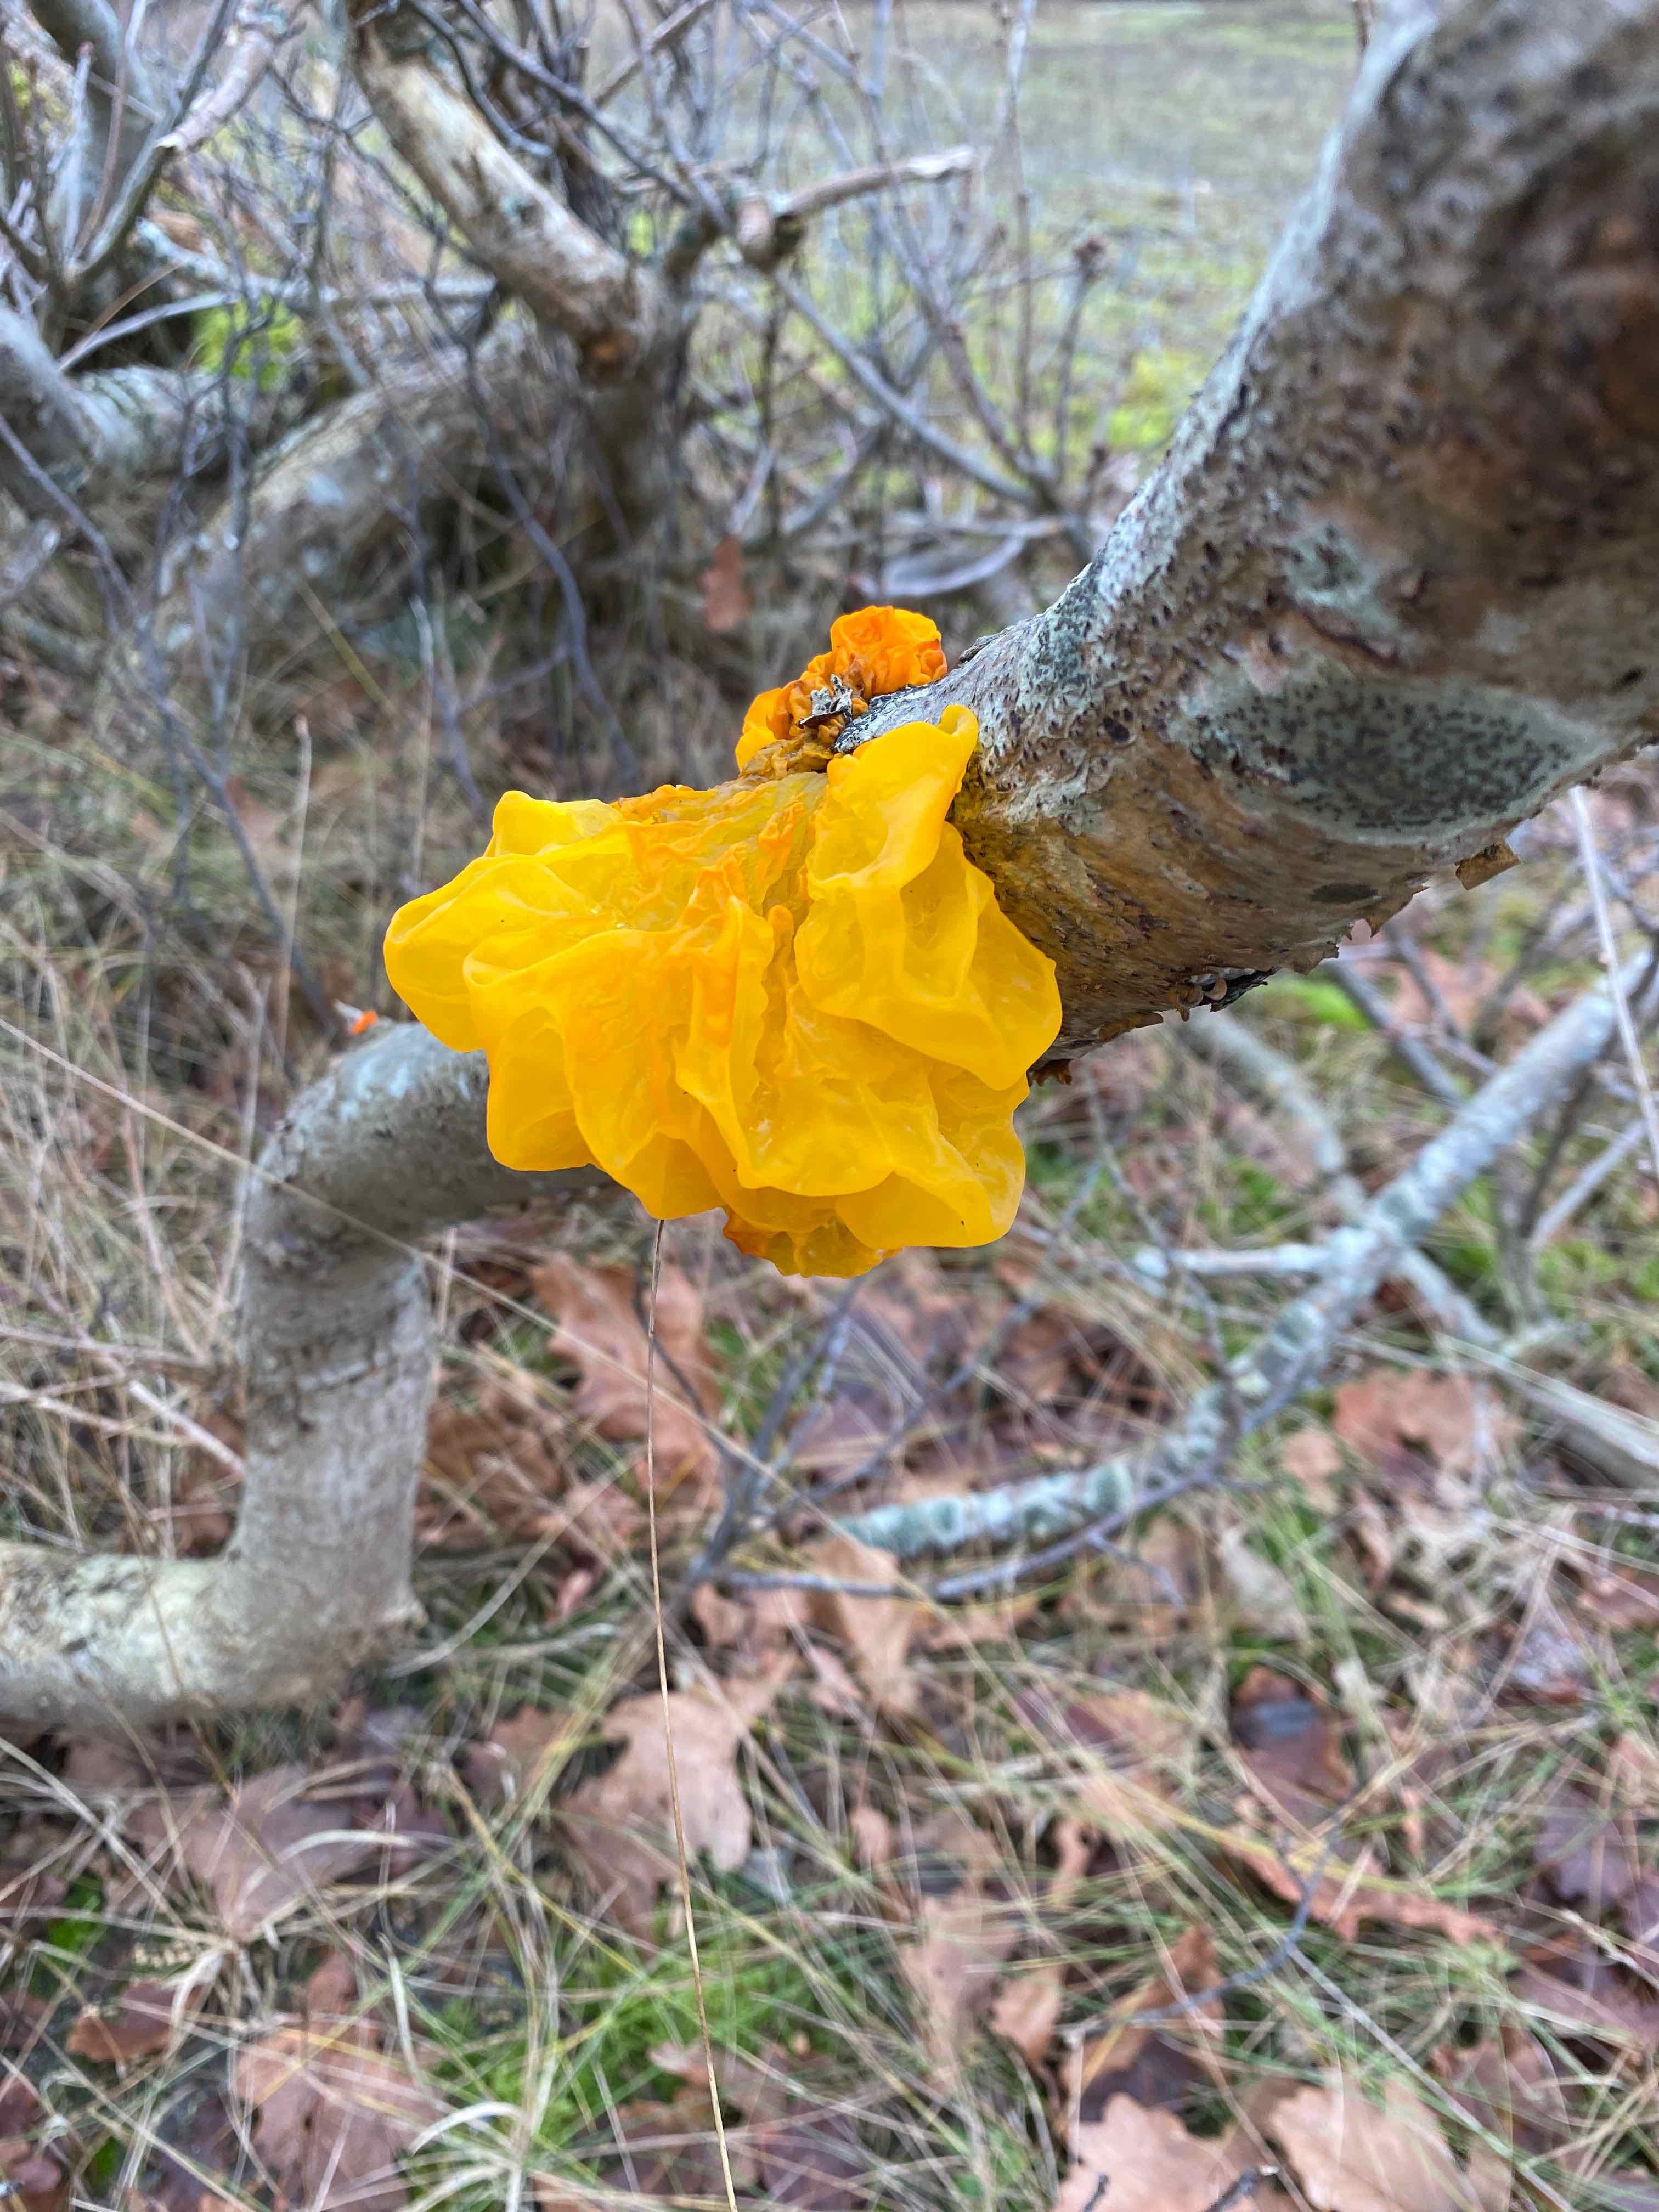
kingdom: Fungi
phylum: Basidiomycota
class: Tremellomycetes
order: Tremellales
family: Tremellaceae
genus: Tremella
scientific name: Tremella mesenterica
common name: gul bævresvamp
